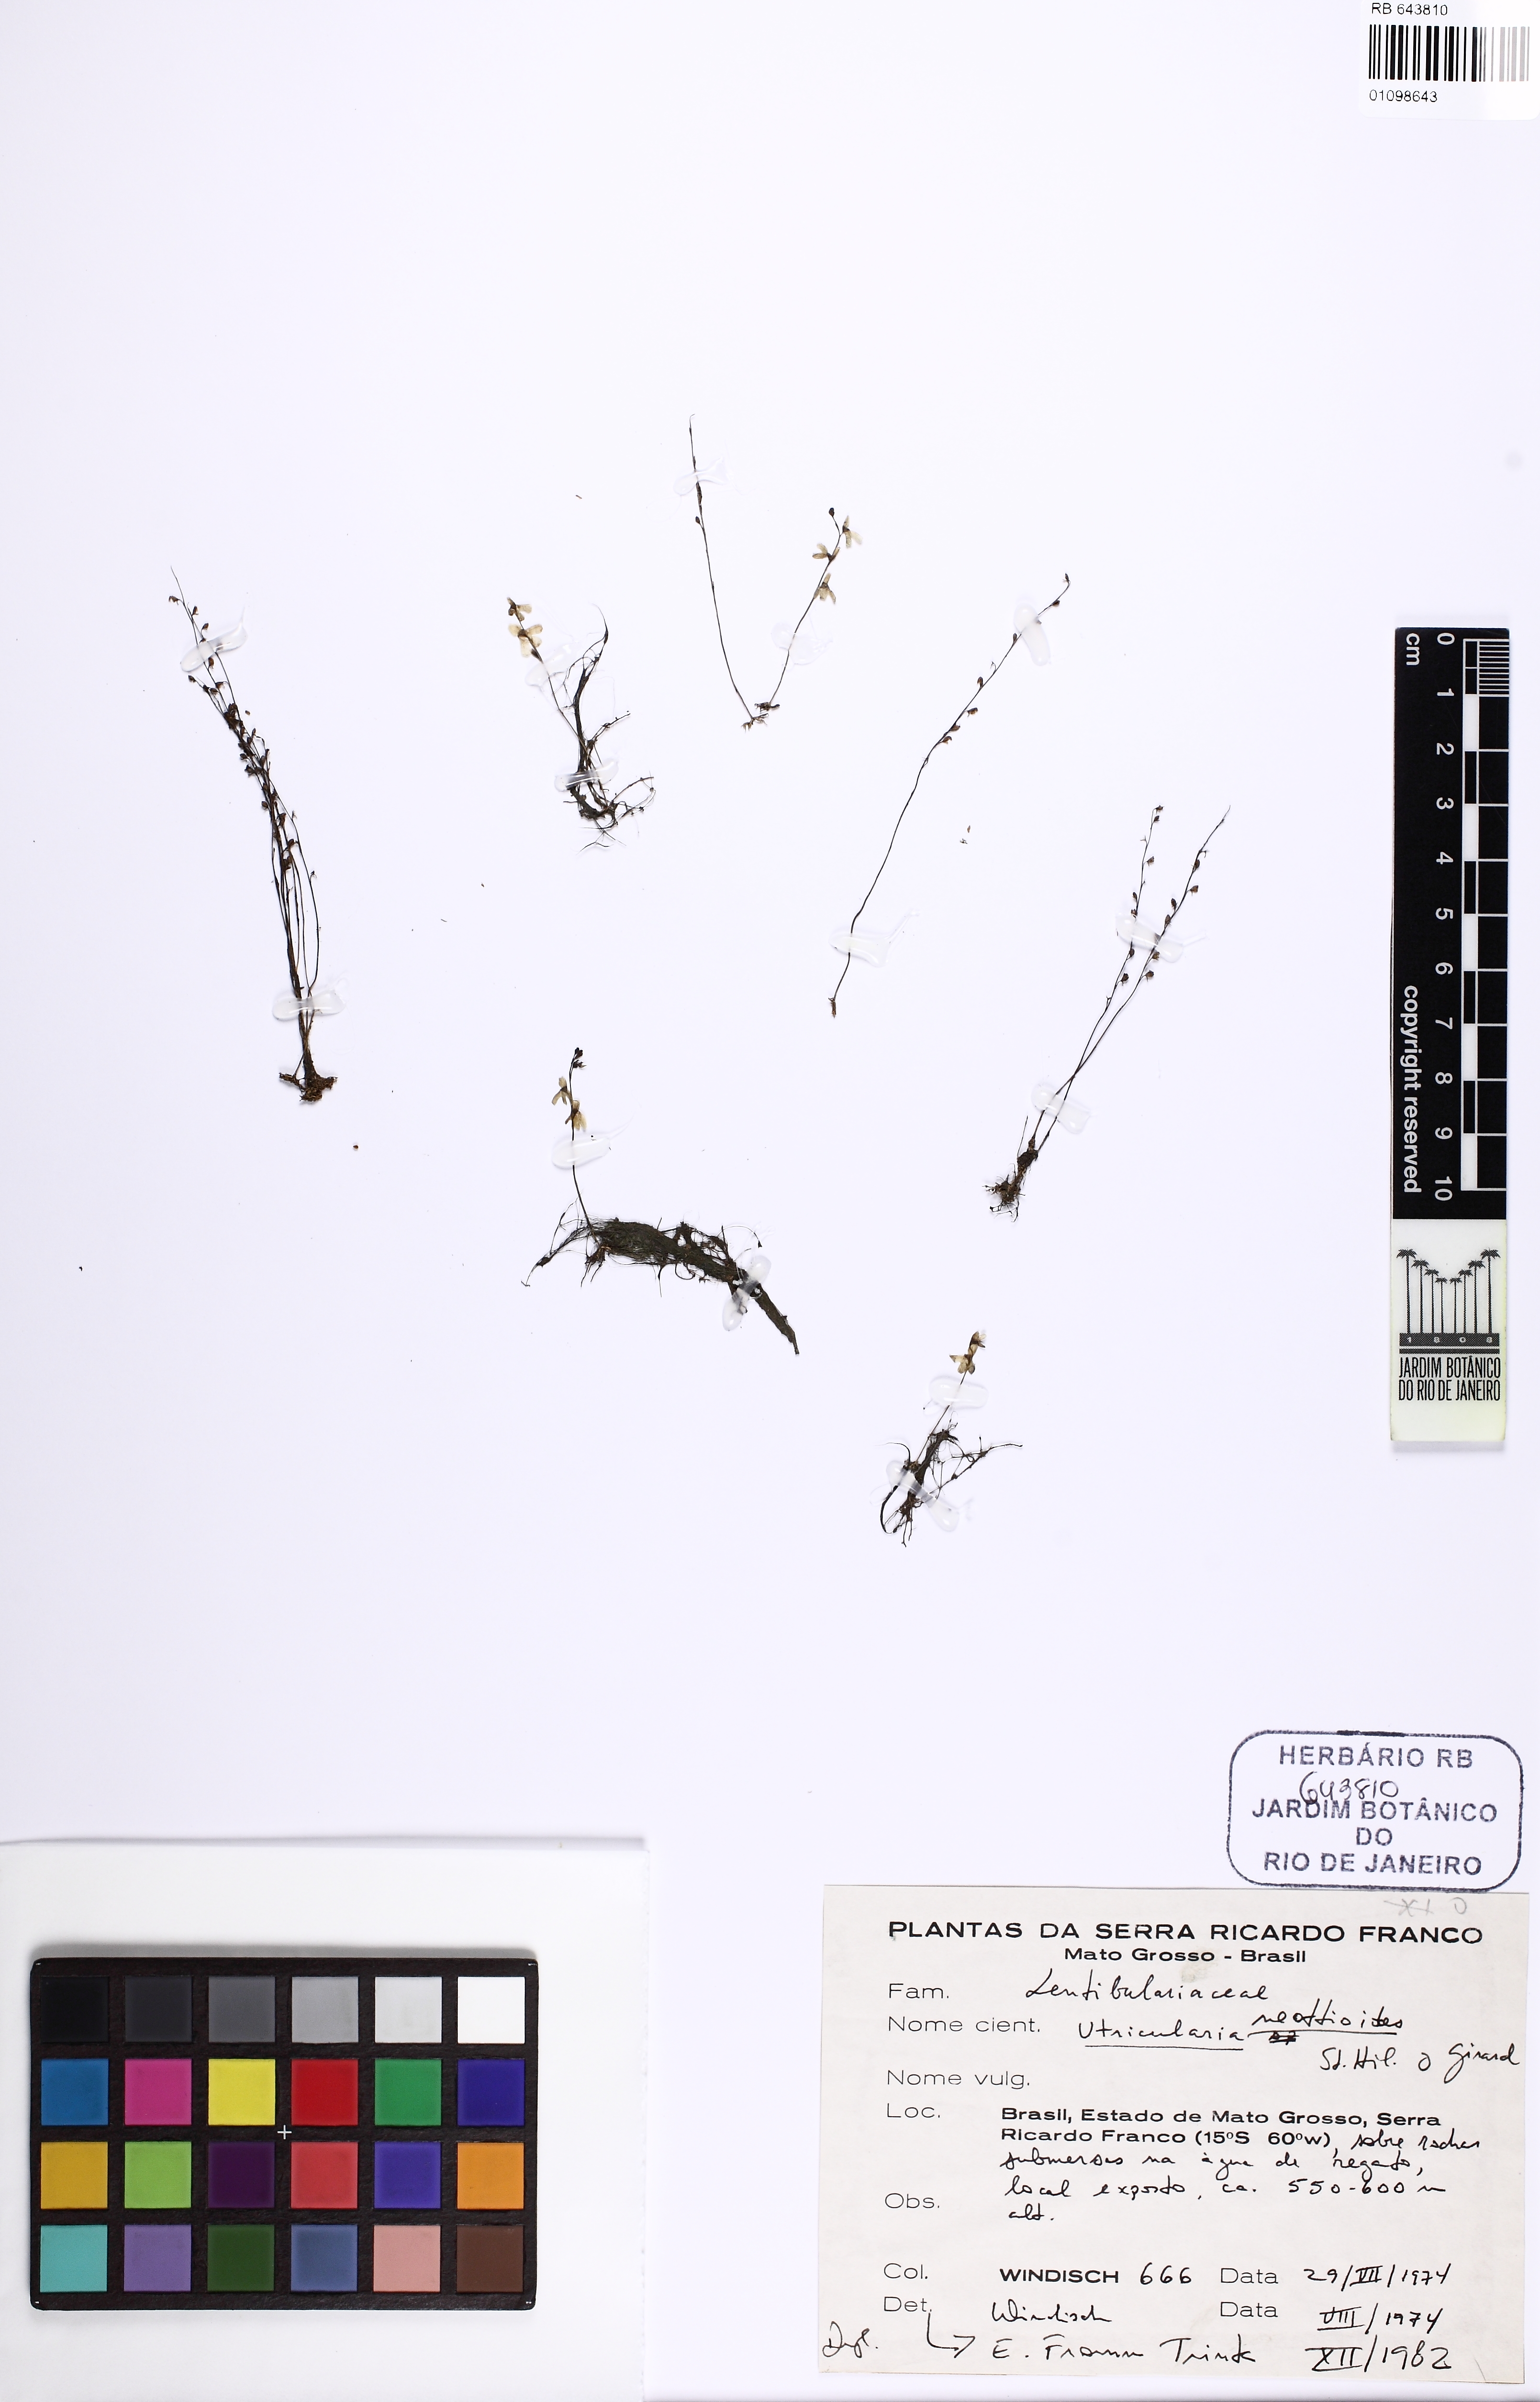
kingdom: Plantae
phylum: Tracheophyta
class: Magnoliopsida
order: Lamiales
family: Lentibulariaceae
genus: Utricularia
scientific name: Utricularia neottioides
